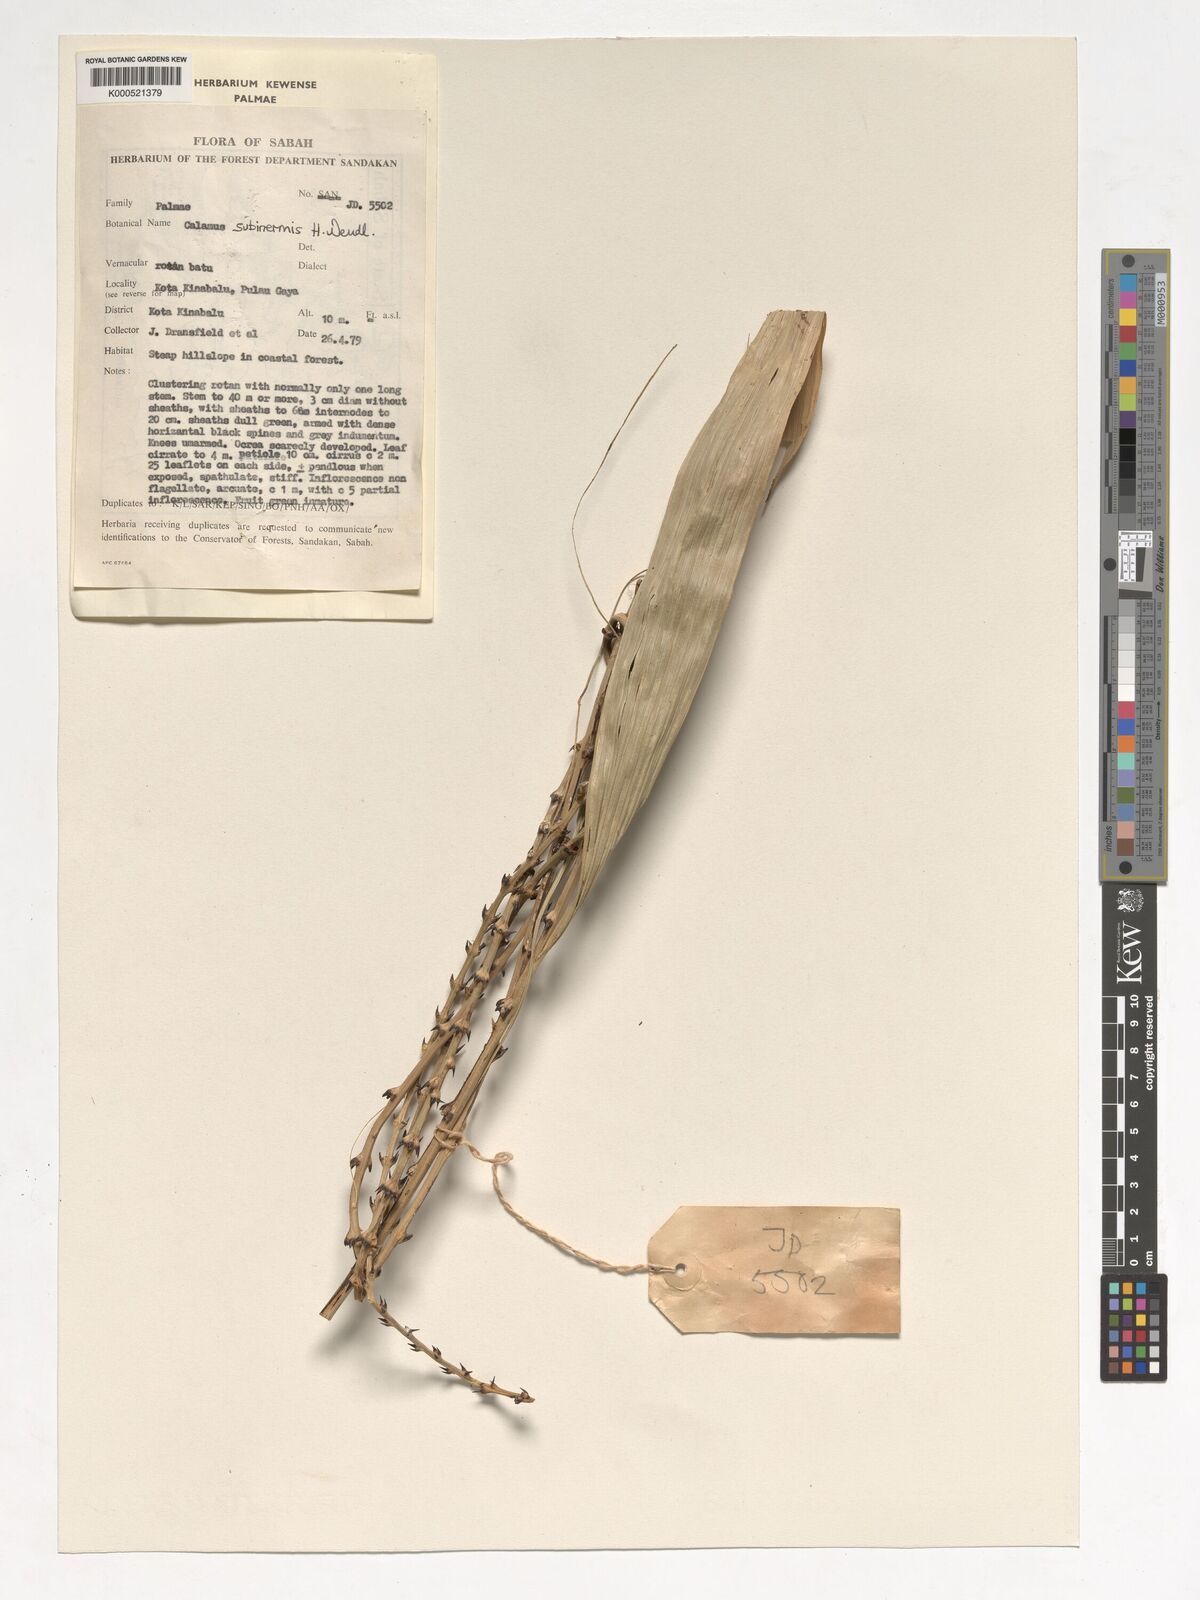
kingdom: Plantae
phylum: Tracheophyta
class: Liliopsida
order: Arecales
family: Arecaceae
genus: Calamus
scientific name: Calamus moseleyanus
